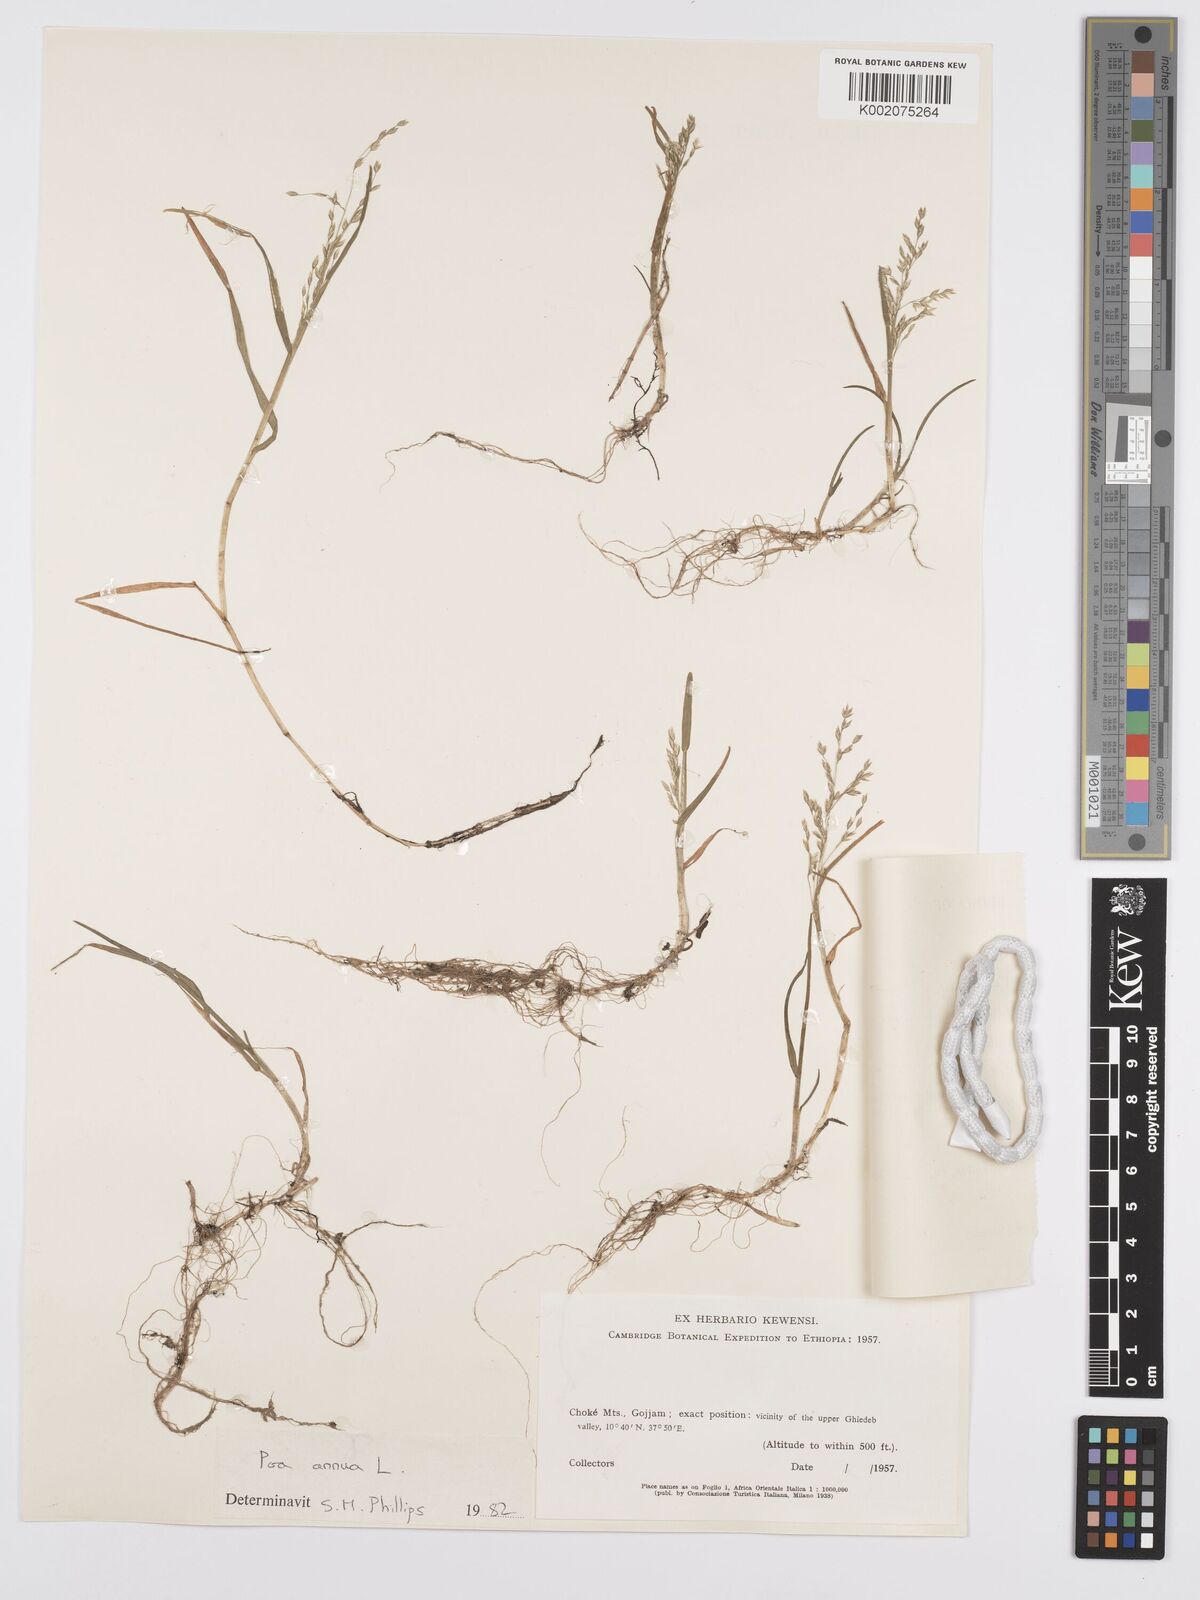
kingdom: Plantae
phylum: Tracheophyta
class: Liliopsida
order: Poales
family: Poaceae
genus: Poa
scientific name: Poa annua
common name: Annual bluegrass
